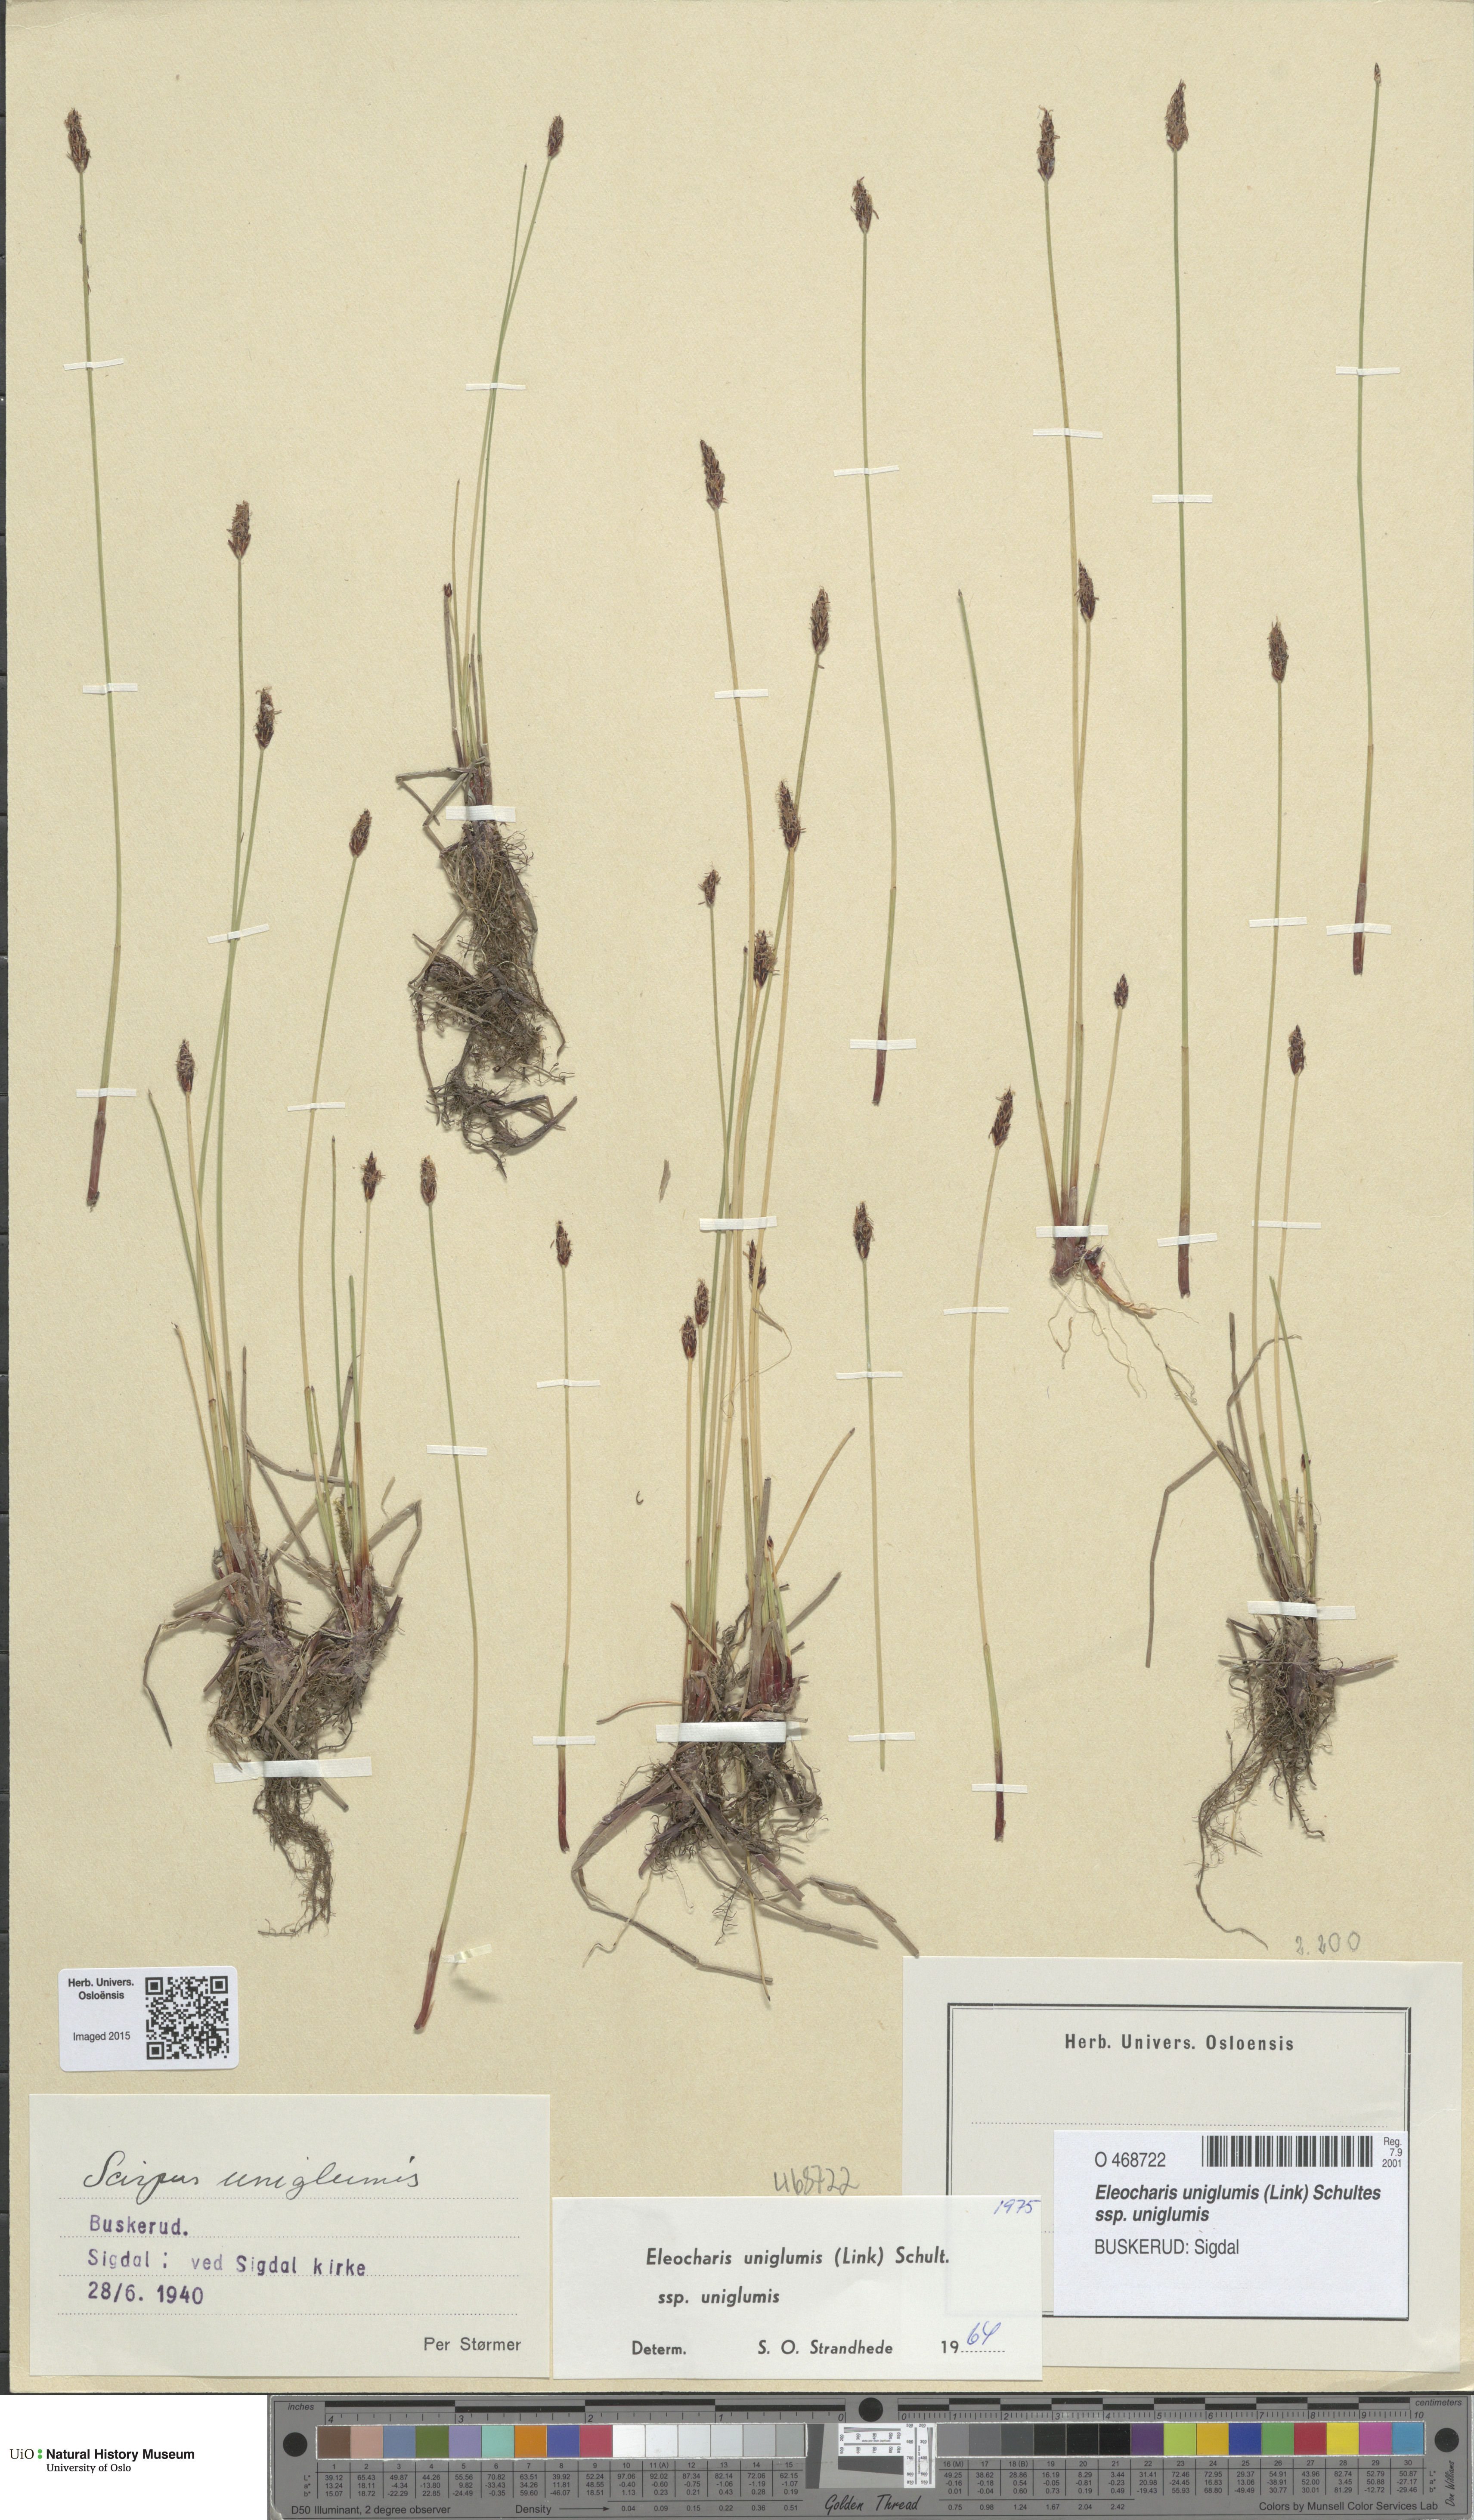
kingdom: Plantae
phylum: Tracheophyta
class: Liliopsida
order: Poales
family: Cyperaceae
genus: Eleocharis
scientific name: Eleocharis uniglumis
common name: Slender spike-rush
